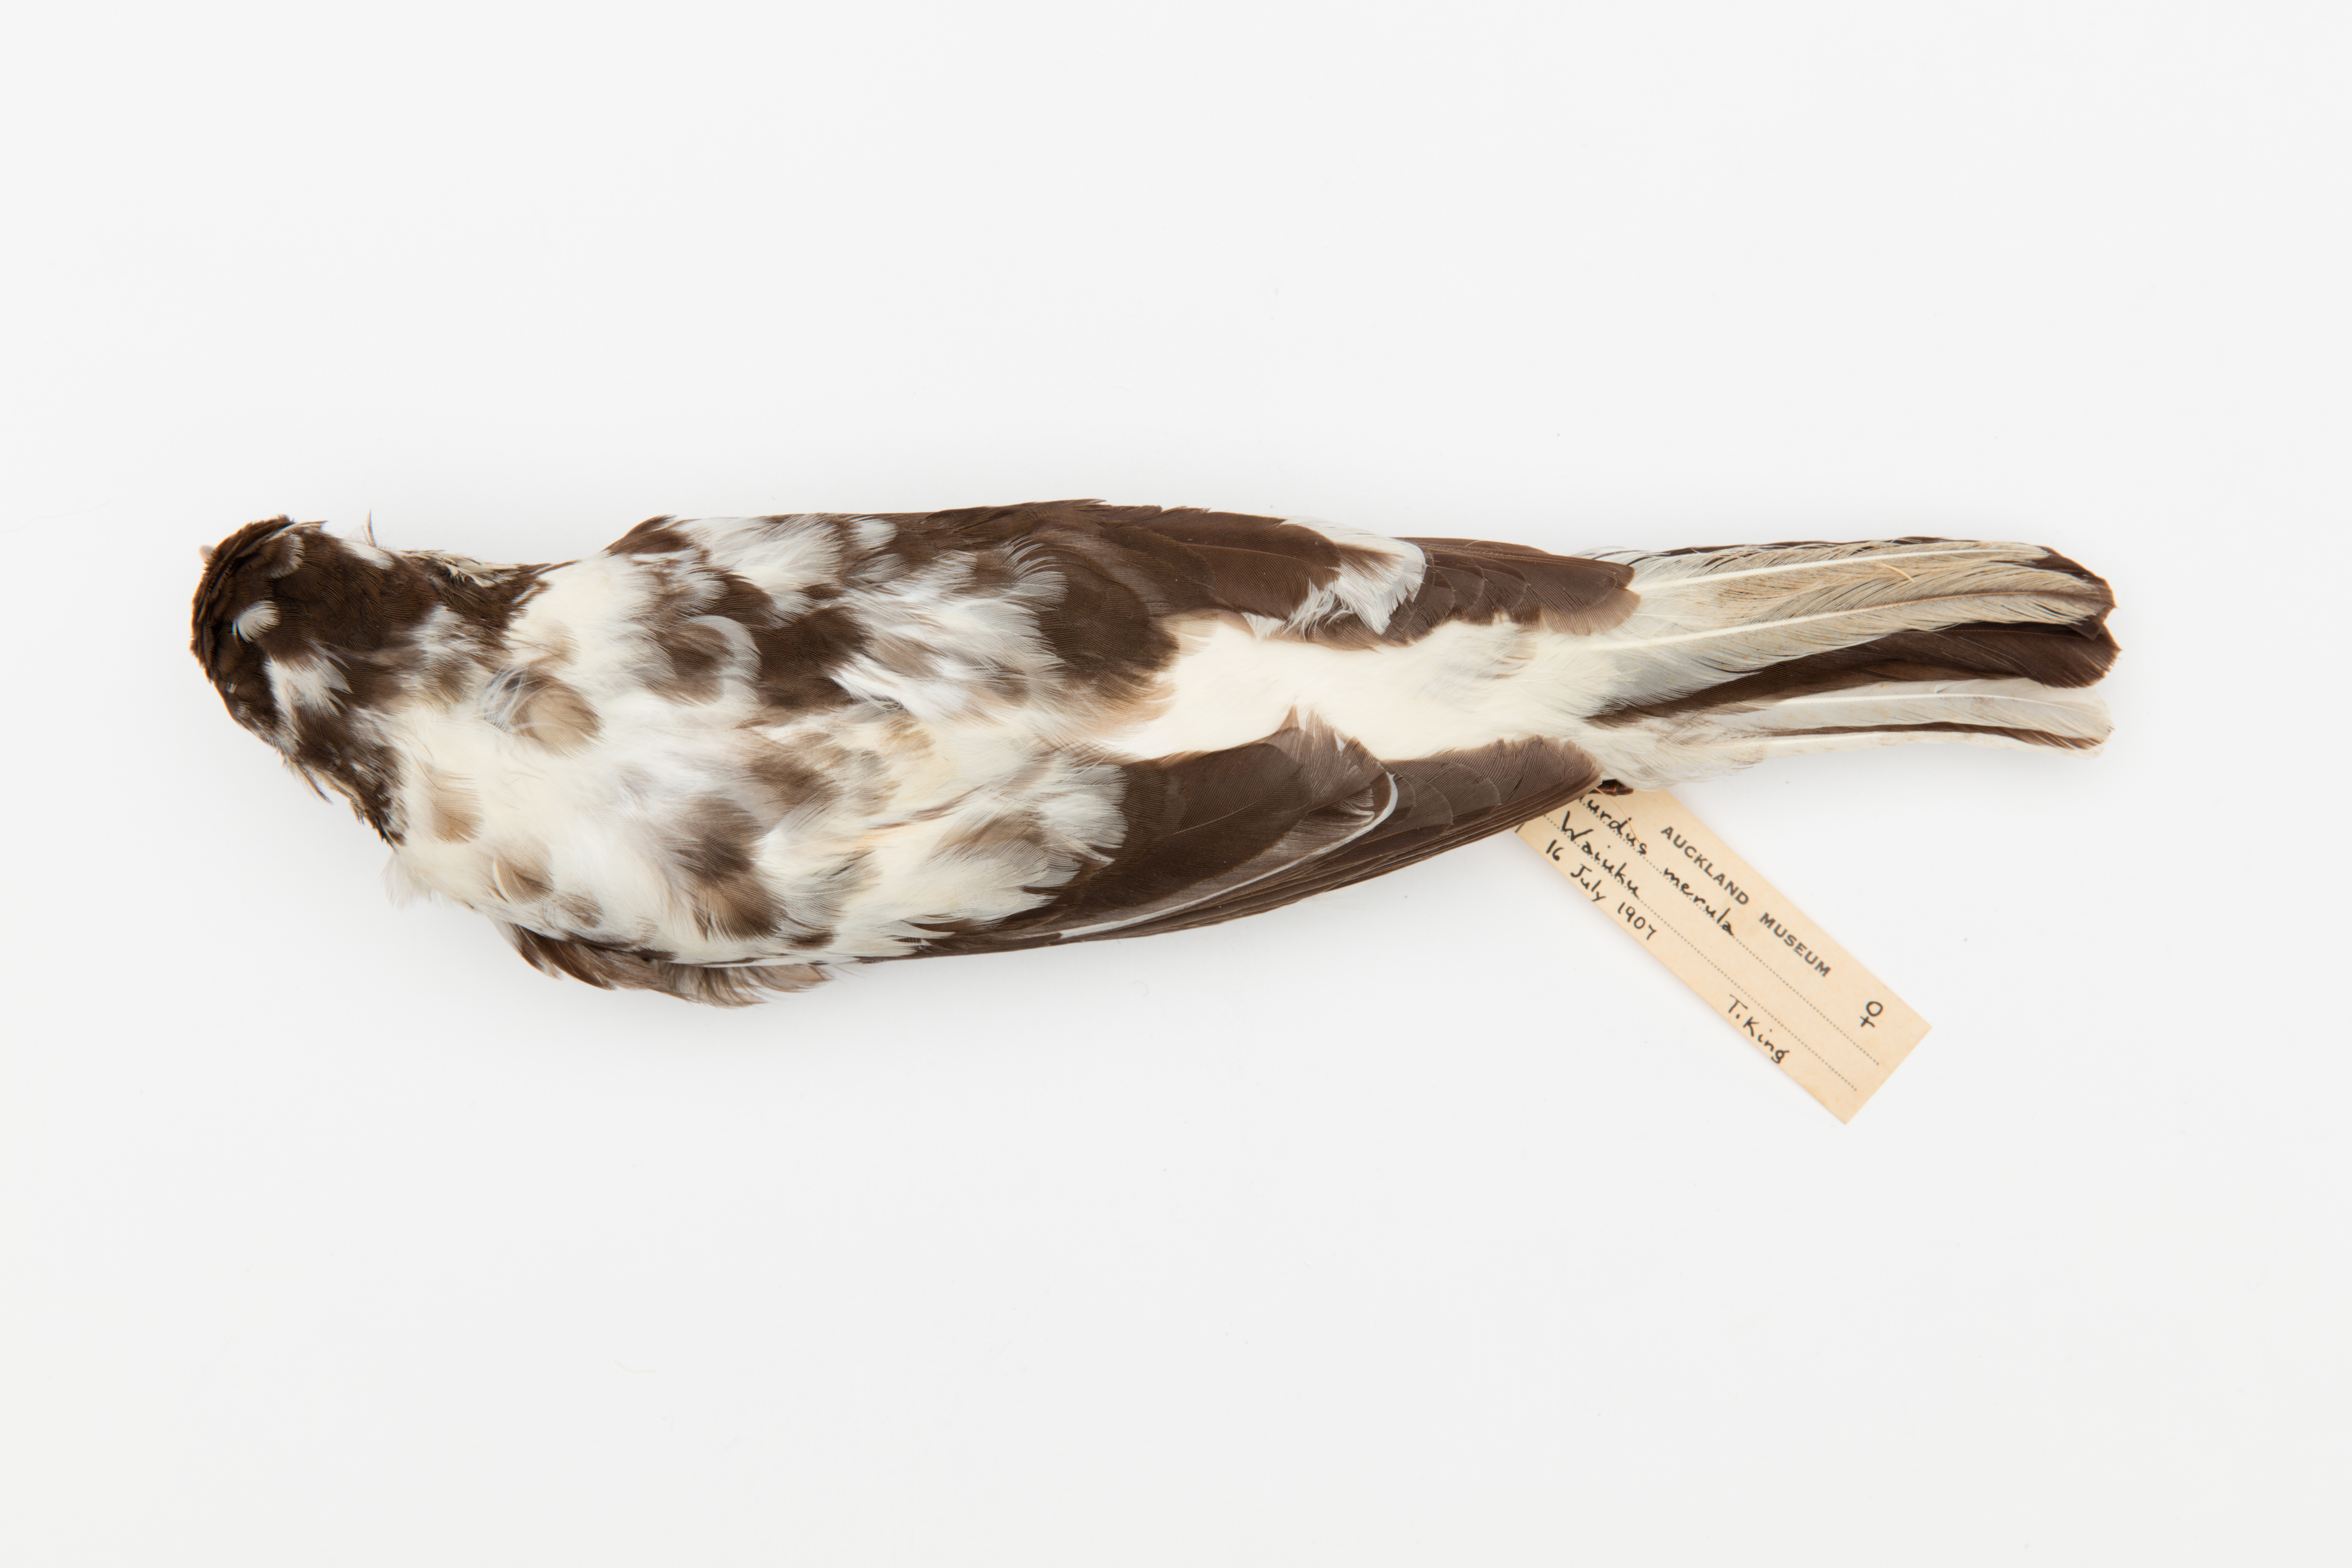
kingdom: Animalia
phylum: Chordata
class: Aves
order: Passeriformes
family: Turdidae
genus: Turdus
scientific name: Turdus merula
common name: Common blackbird
